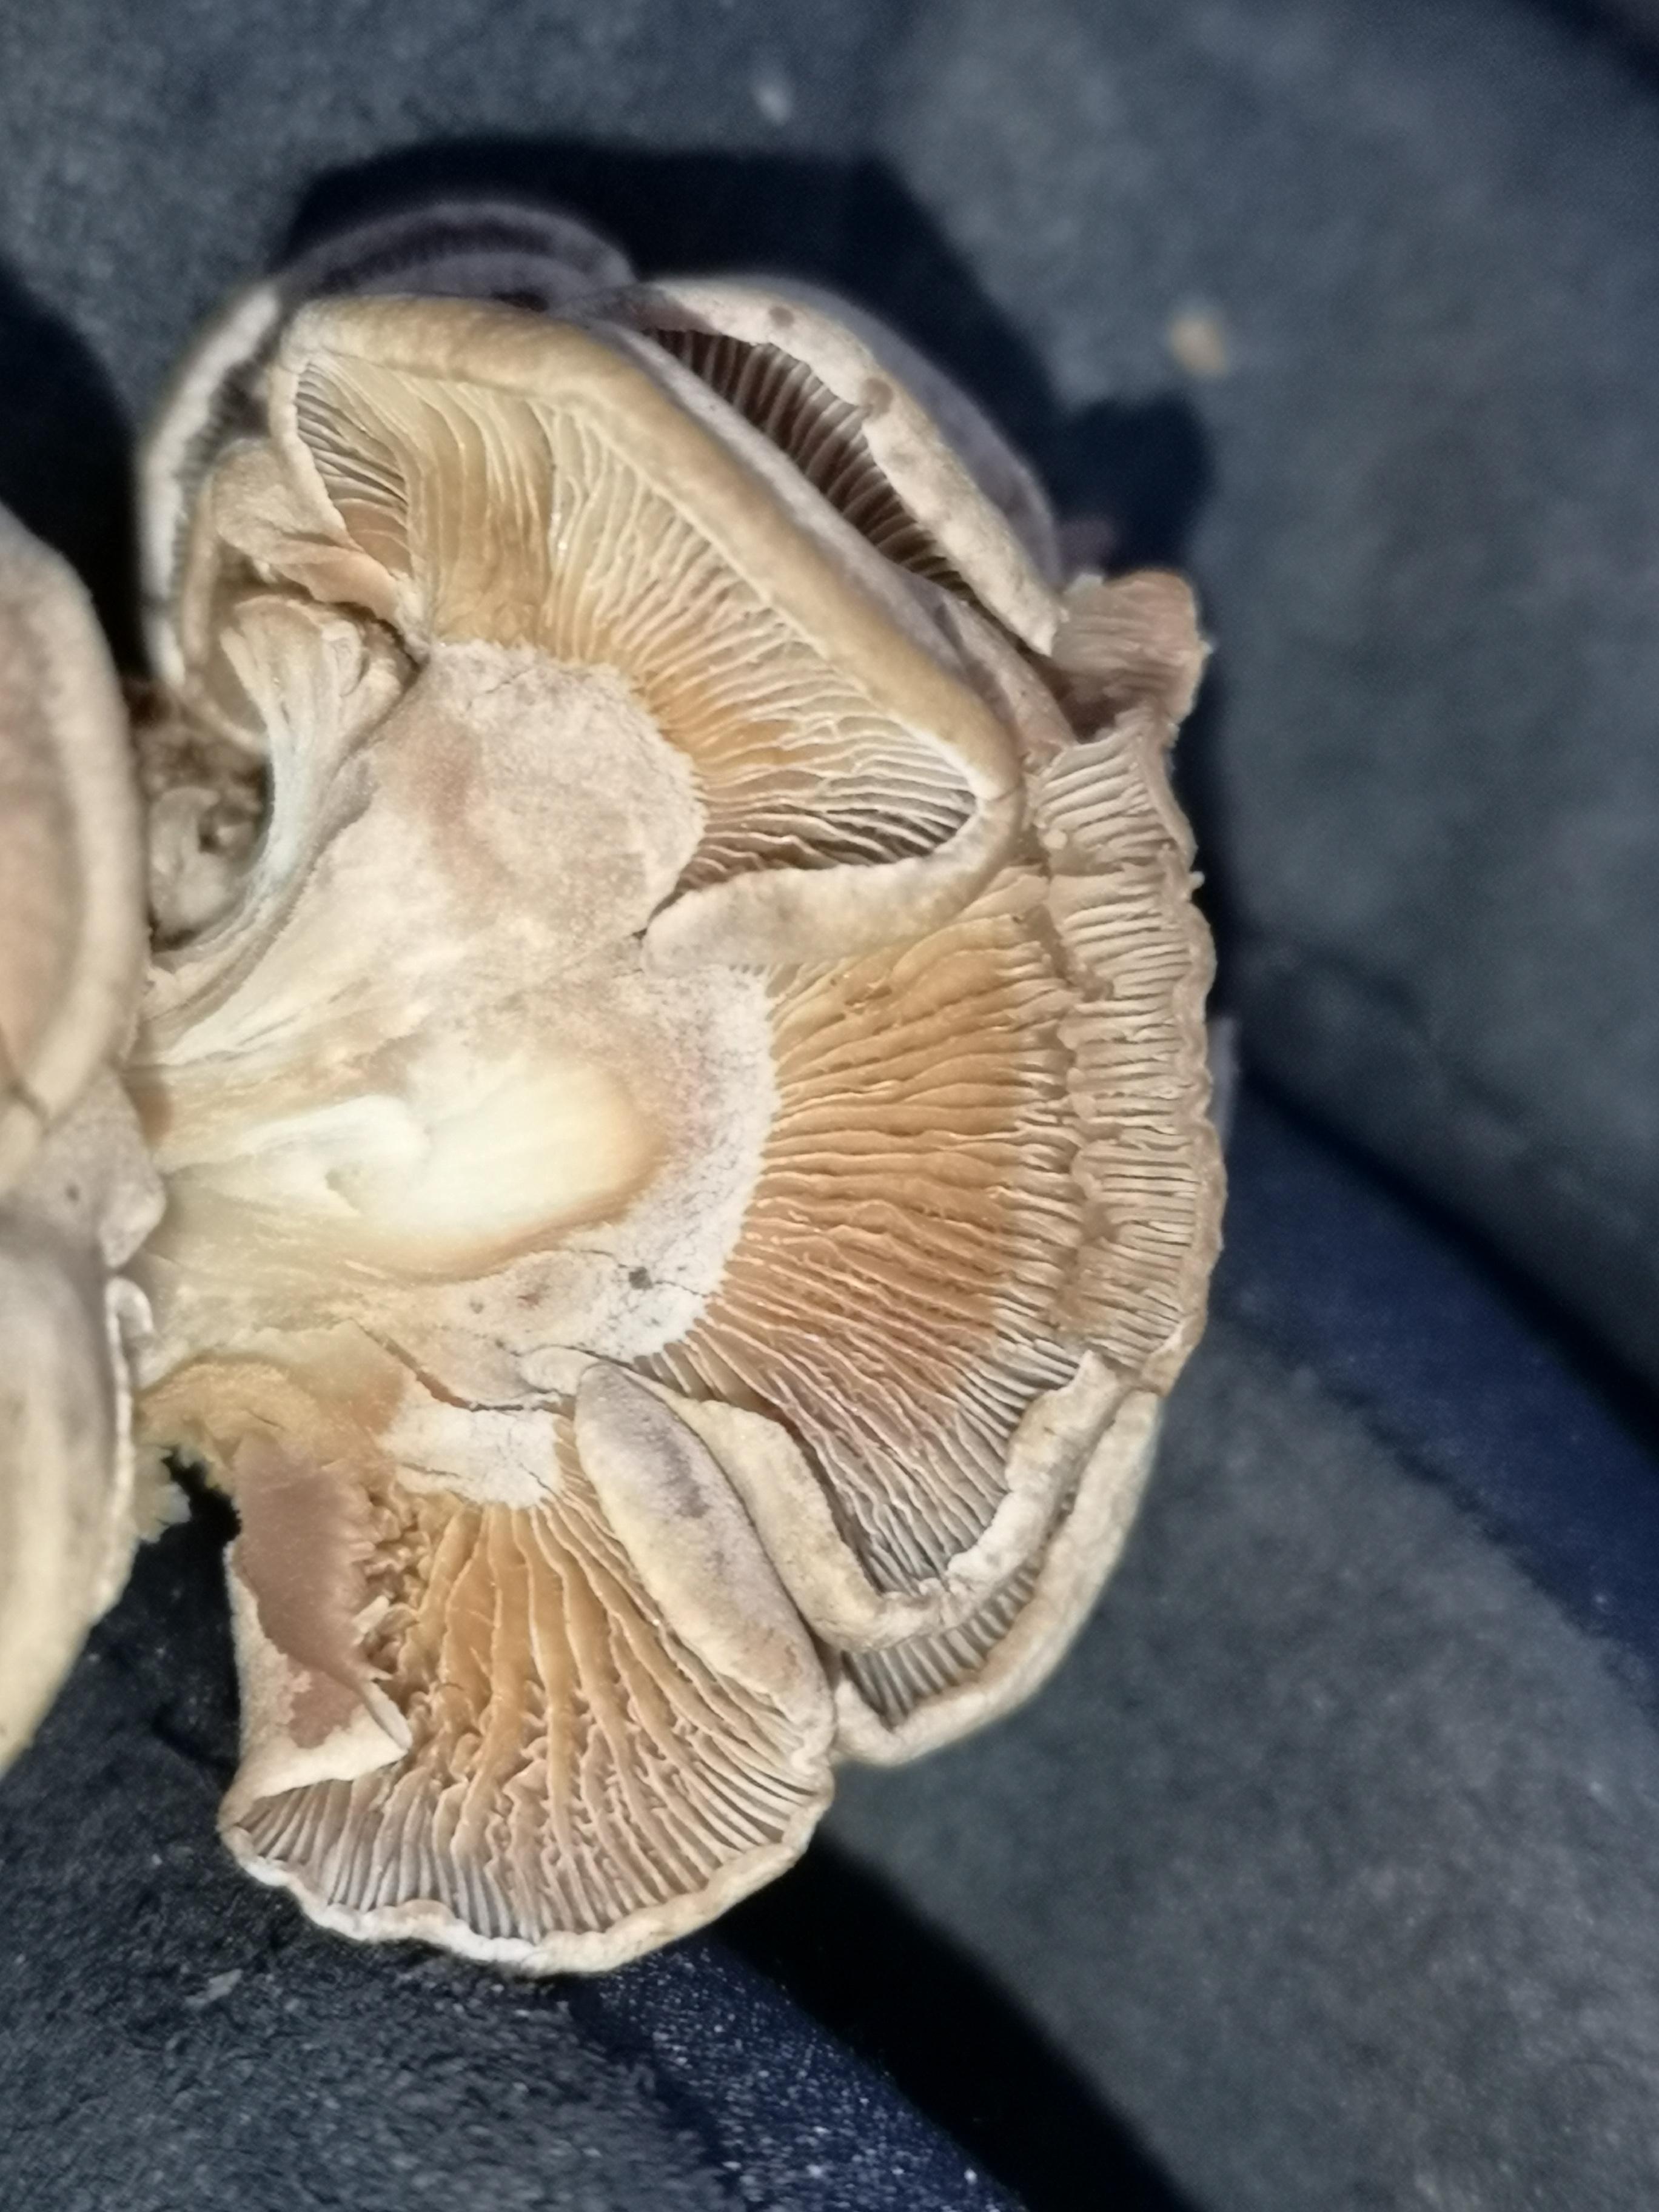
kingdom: Fungi
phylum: Basidiomycota
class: Agaricomycetes
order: Agaricales
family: Mycenaceae
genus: Panellus
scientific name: Panellus stipticus
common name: kliddet epaulethat
